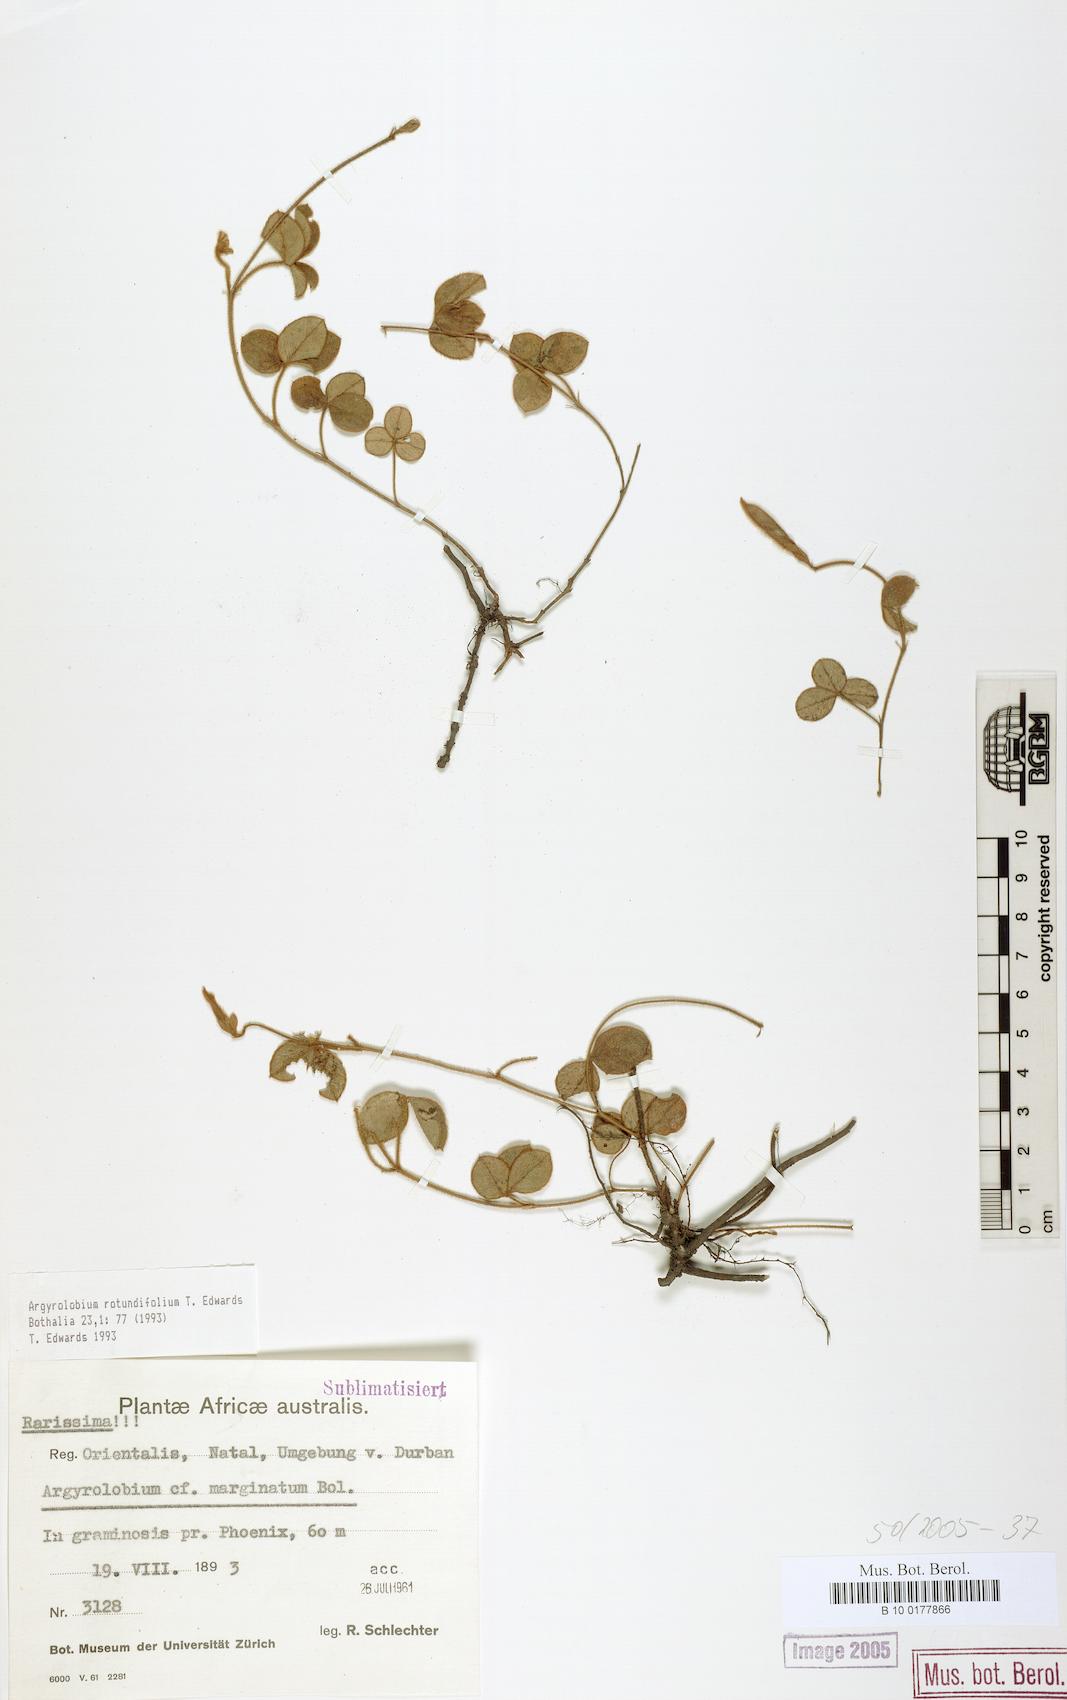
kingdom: Plantae
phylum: Tracheophyta
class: Magnoliopsida
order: Fabales
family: Fabaceae
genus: Argyrolobium
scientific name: Argyrolobium rotundifolium
